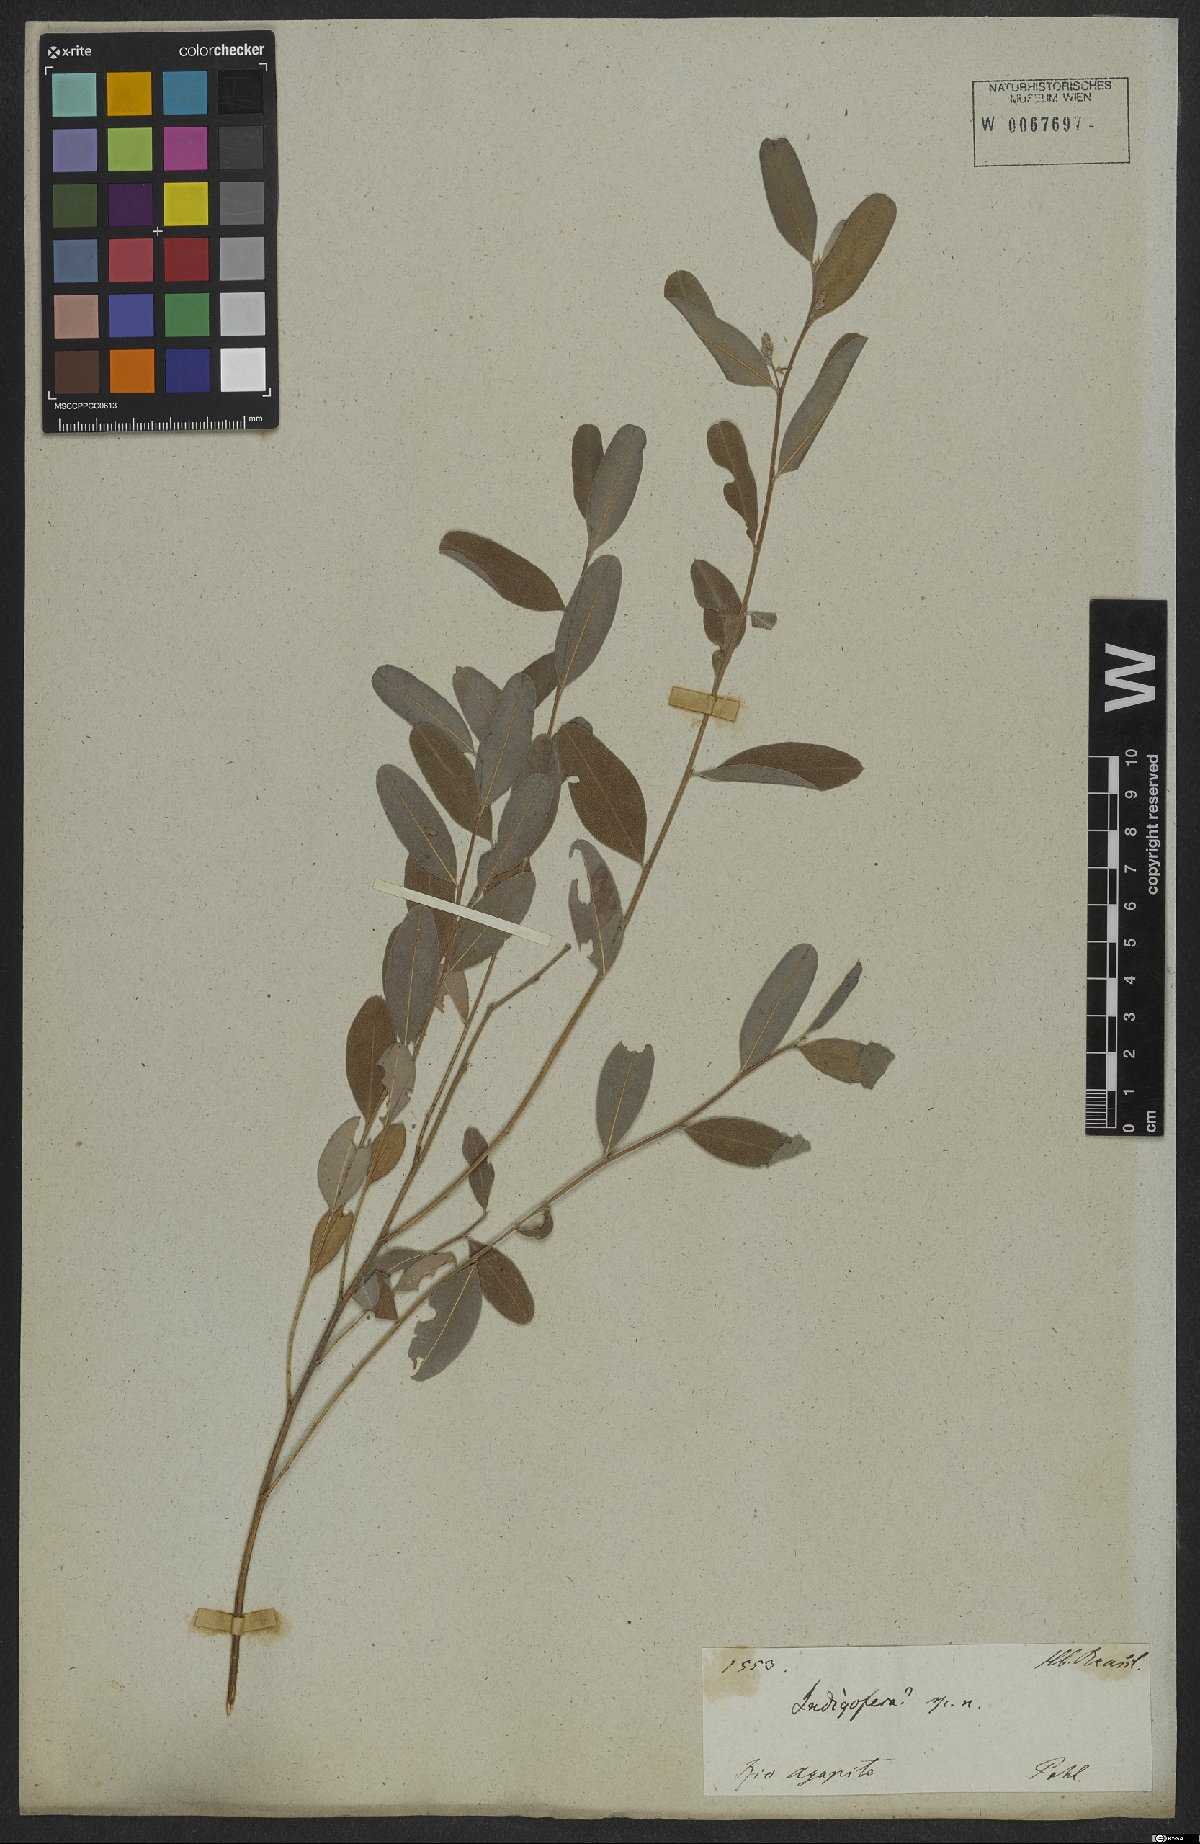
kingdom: Plantae
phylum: Tracheophyta
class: Magnoliopsida
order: Fabales
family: Fabaceae
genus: Indigofera
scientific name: Indigofera lespedezioides
